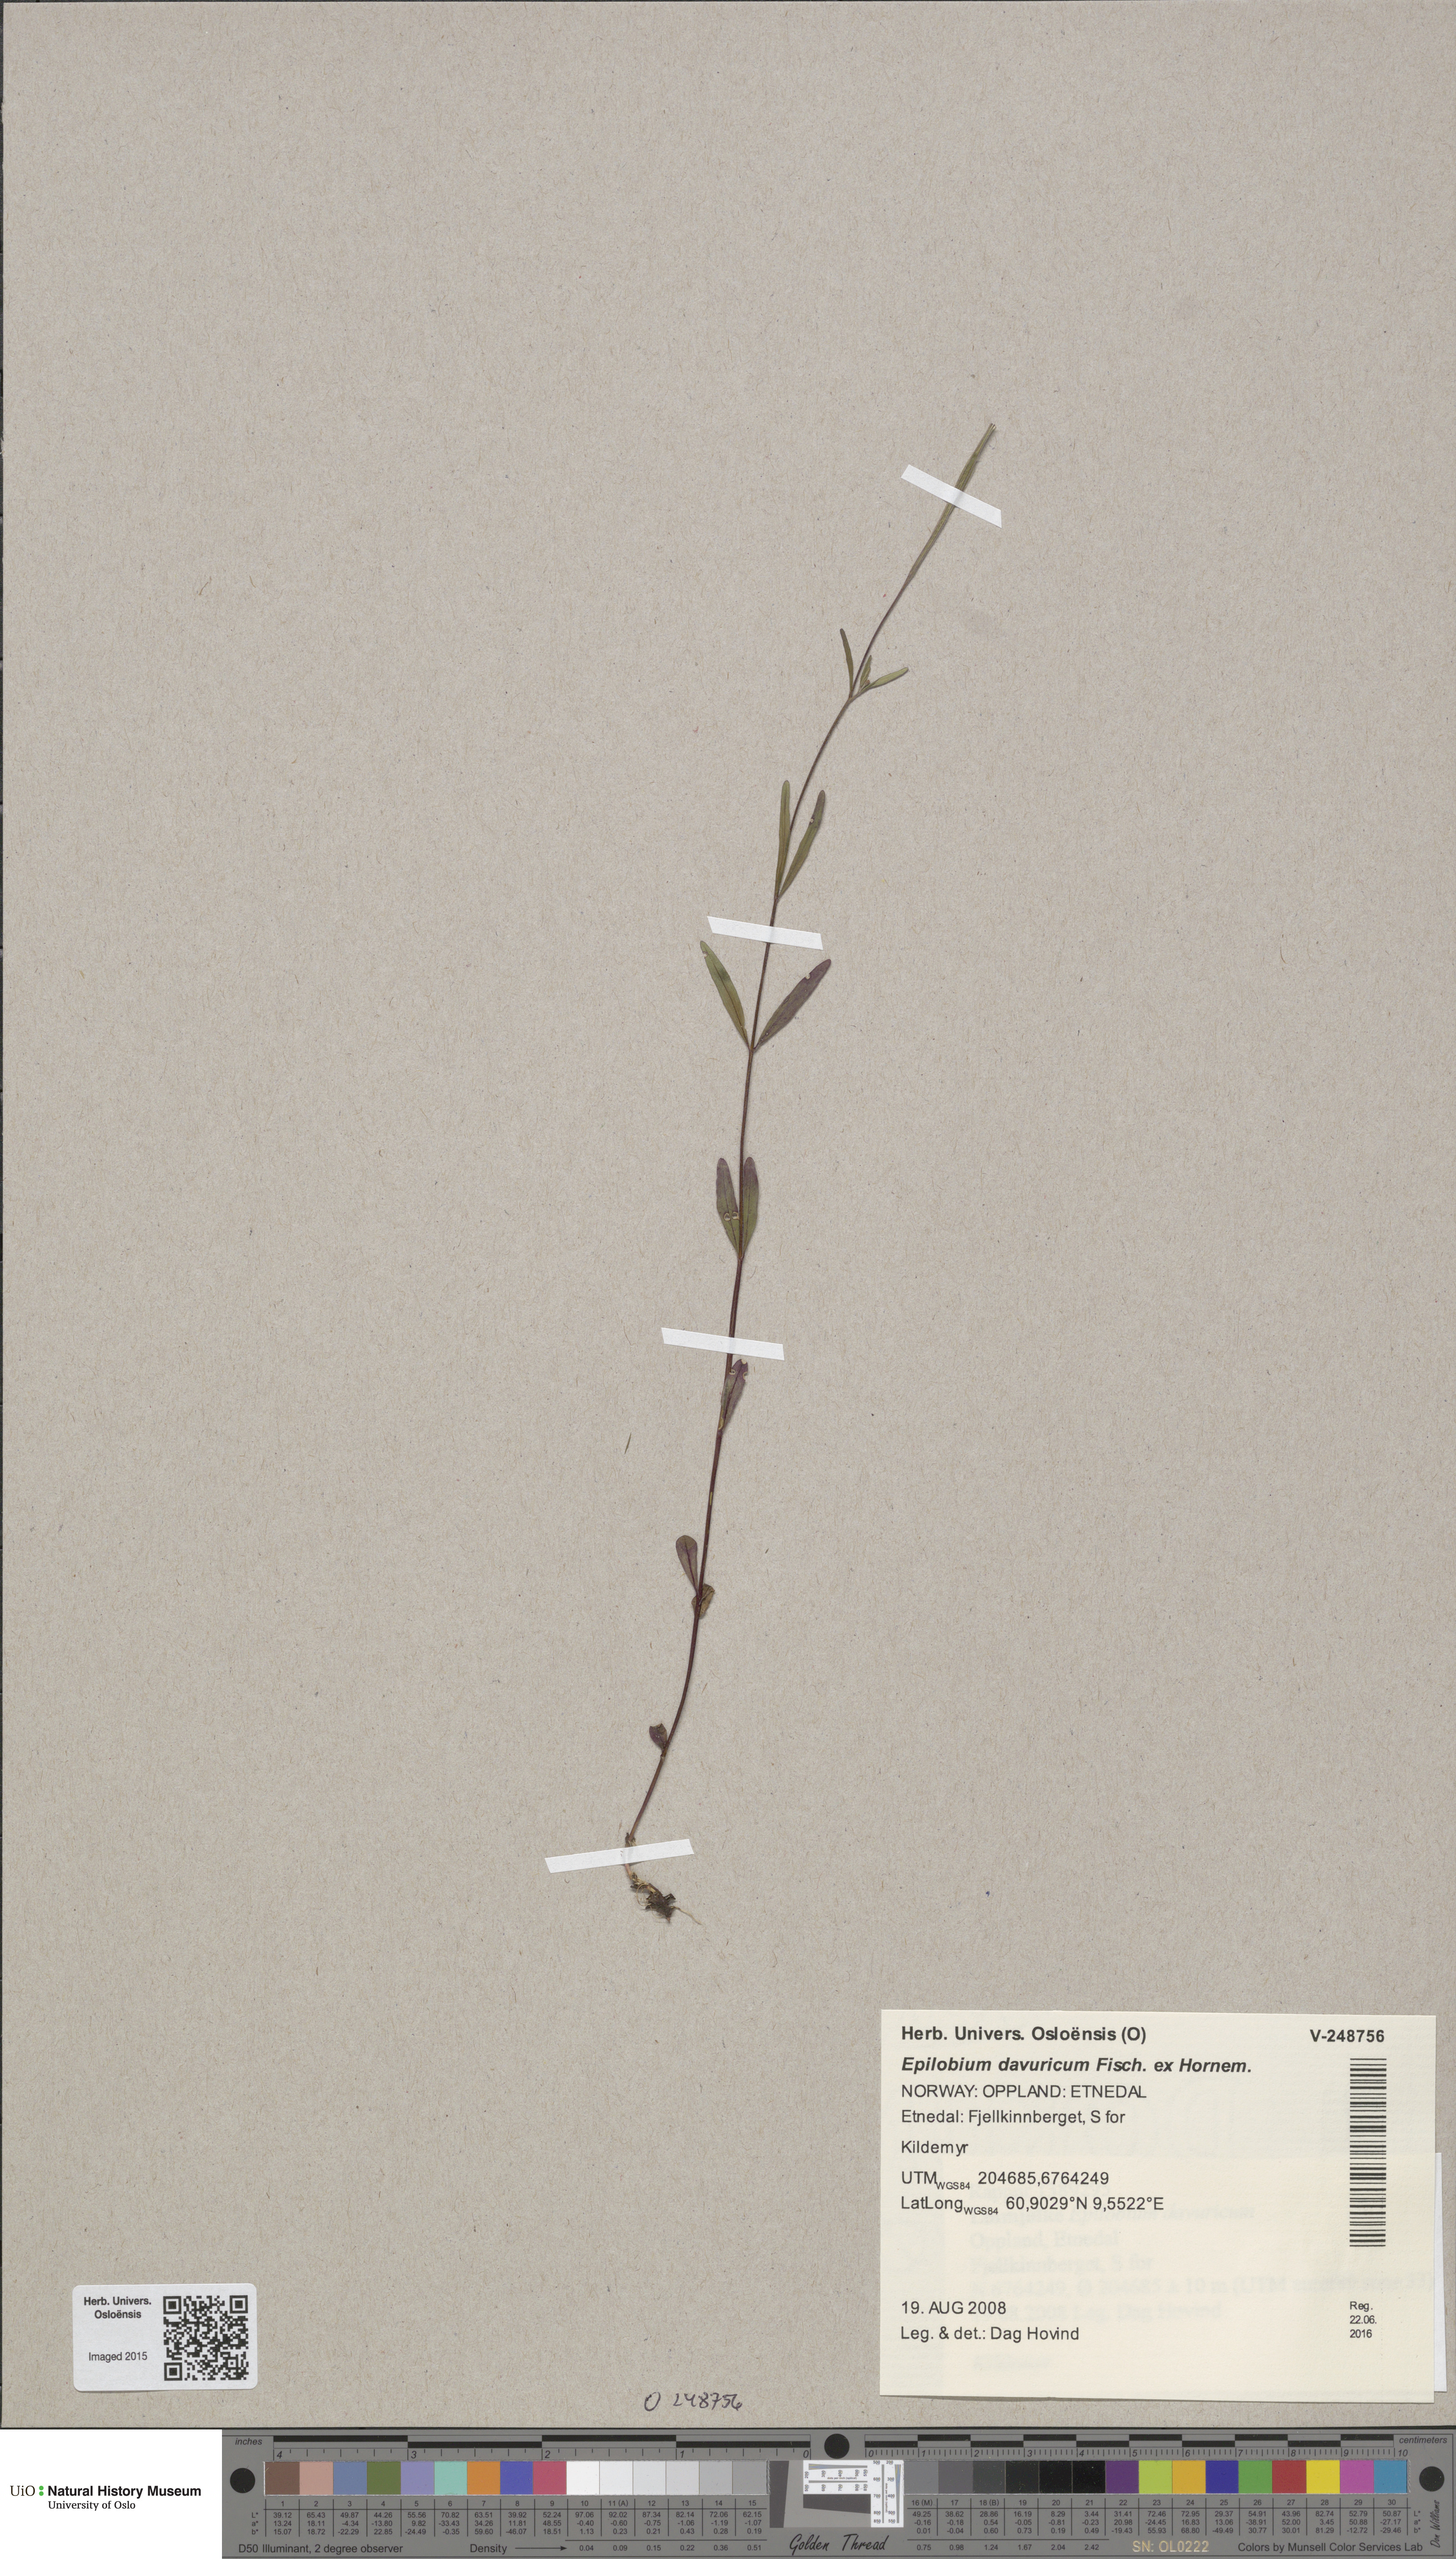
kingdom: Plantae
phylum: Tracheophyta
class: Magnoliopsida
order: Myrtales
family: Onagraceae
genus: Epilobium
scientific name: Epilobium davuricum
